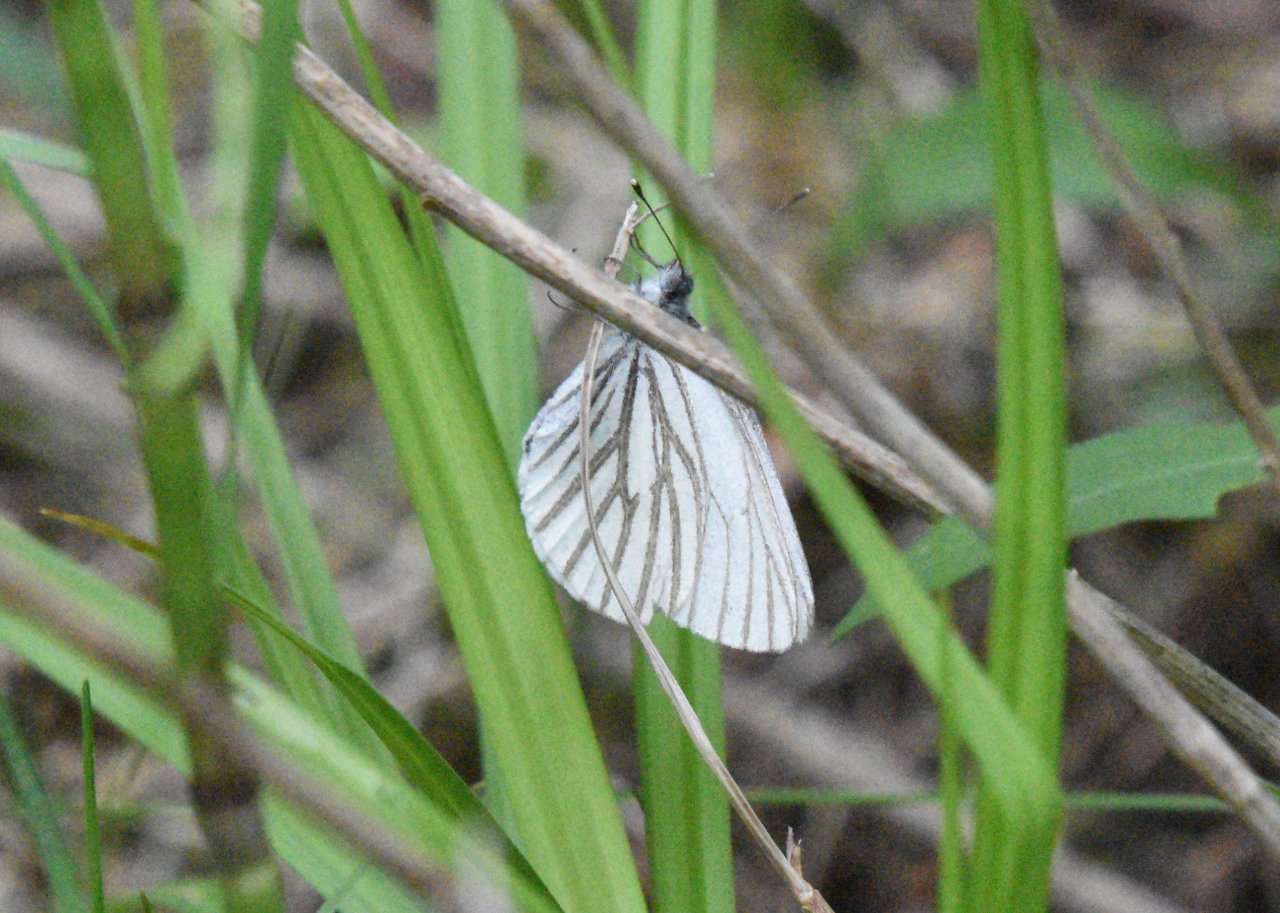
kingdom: Animalia
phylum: Arthropoda
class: Insecta
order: Lepidoptera
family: Pieridae
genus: Pieris
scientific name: Pieris oleracea
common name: Mustard White
